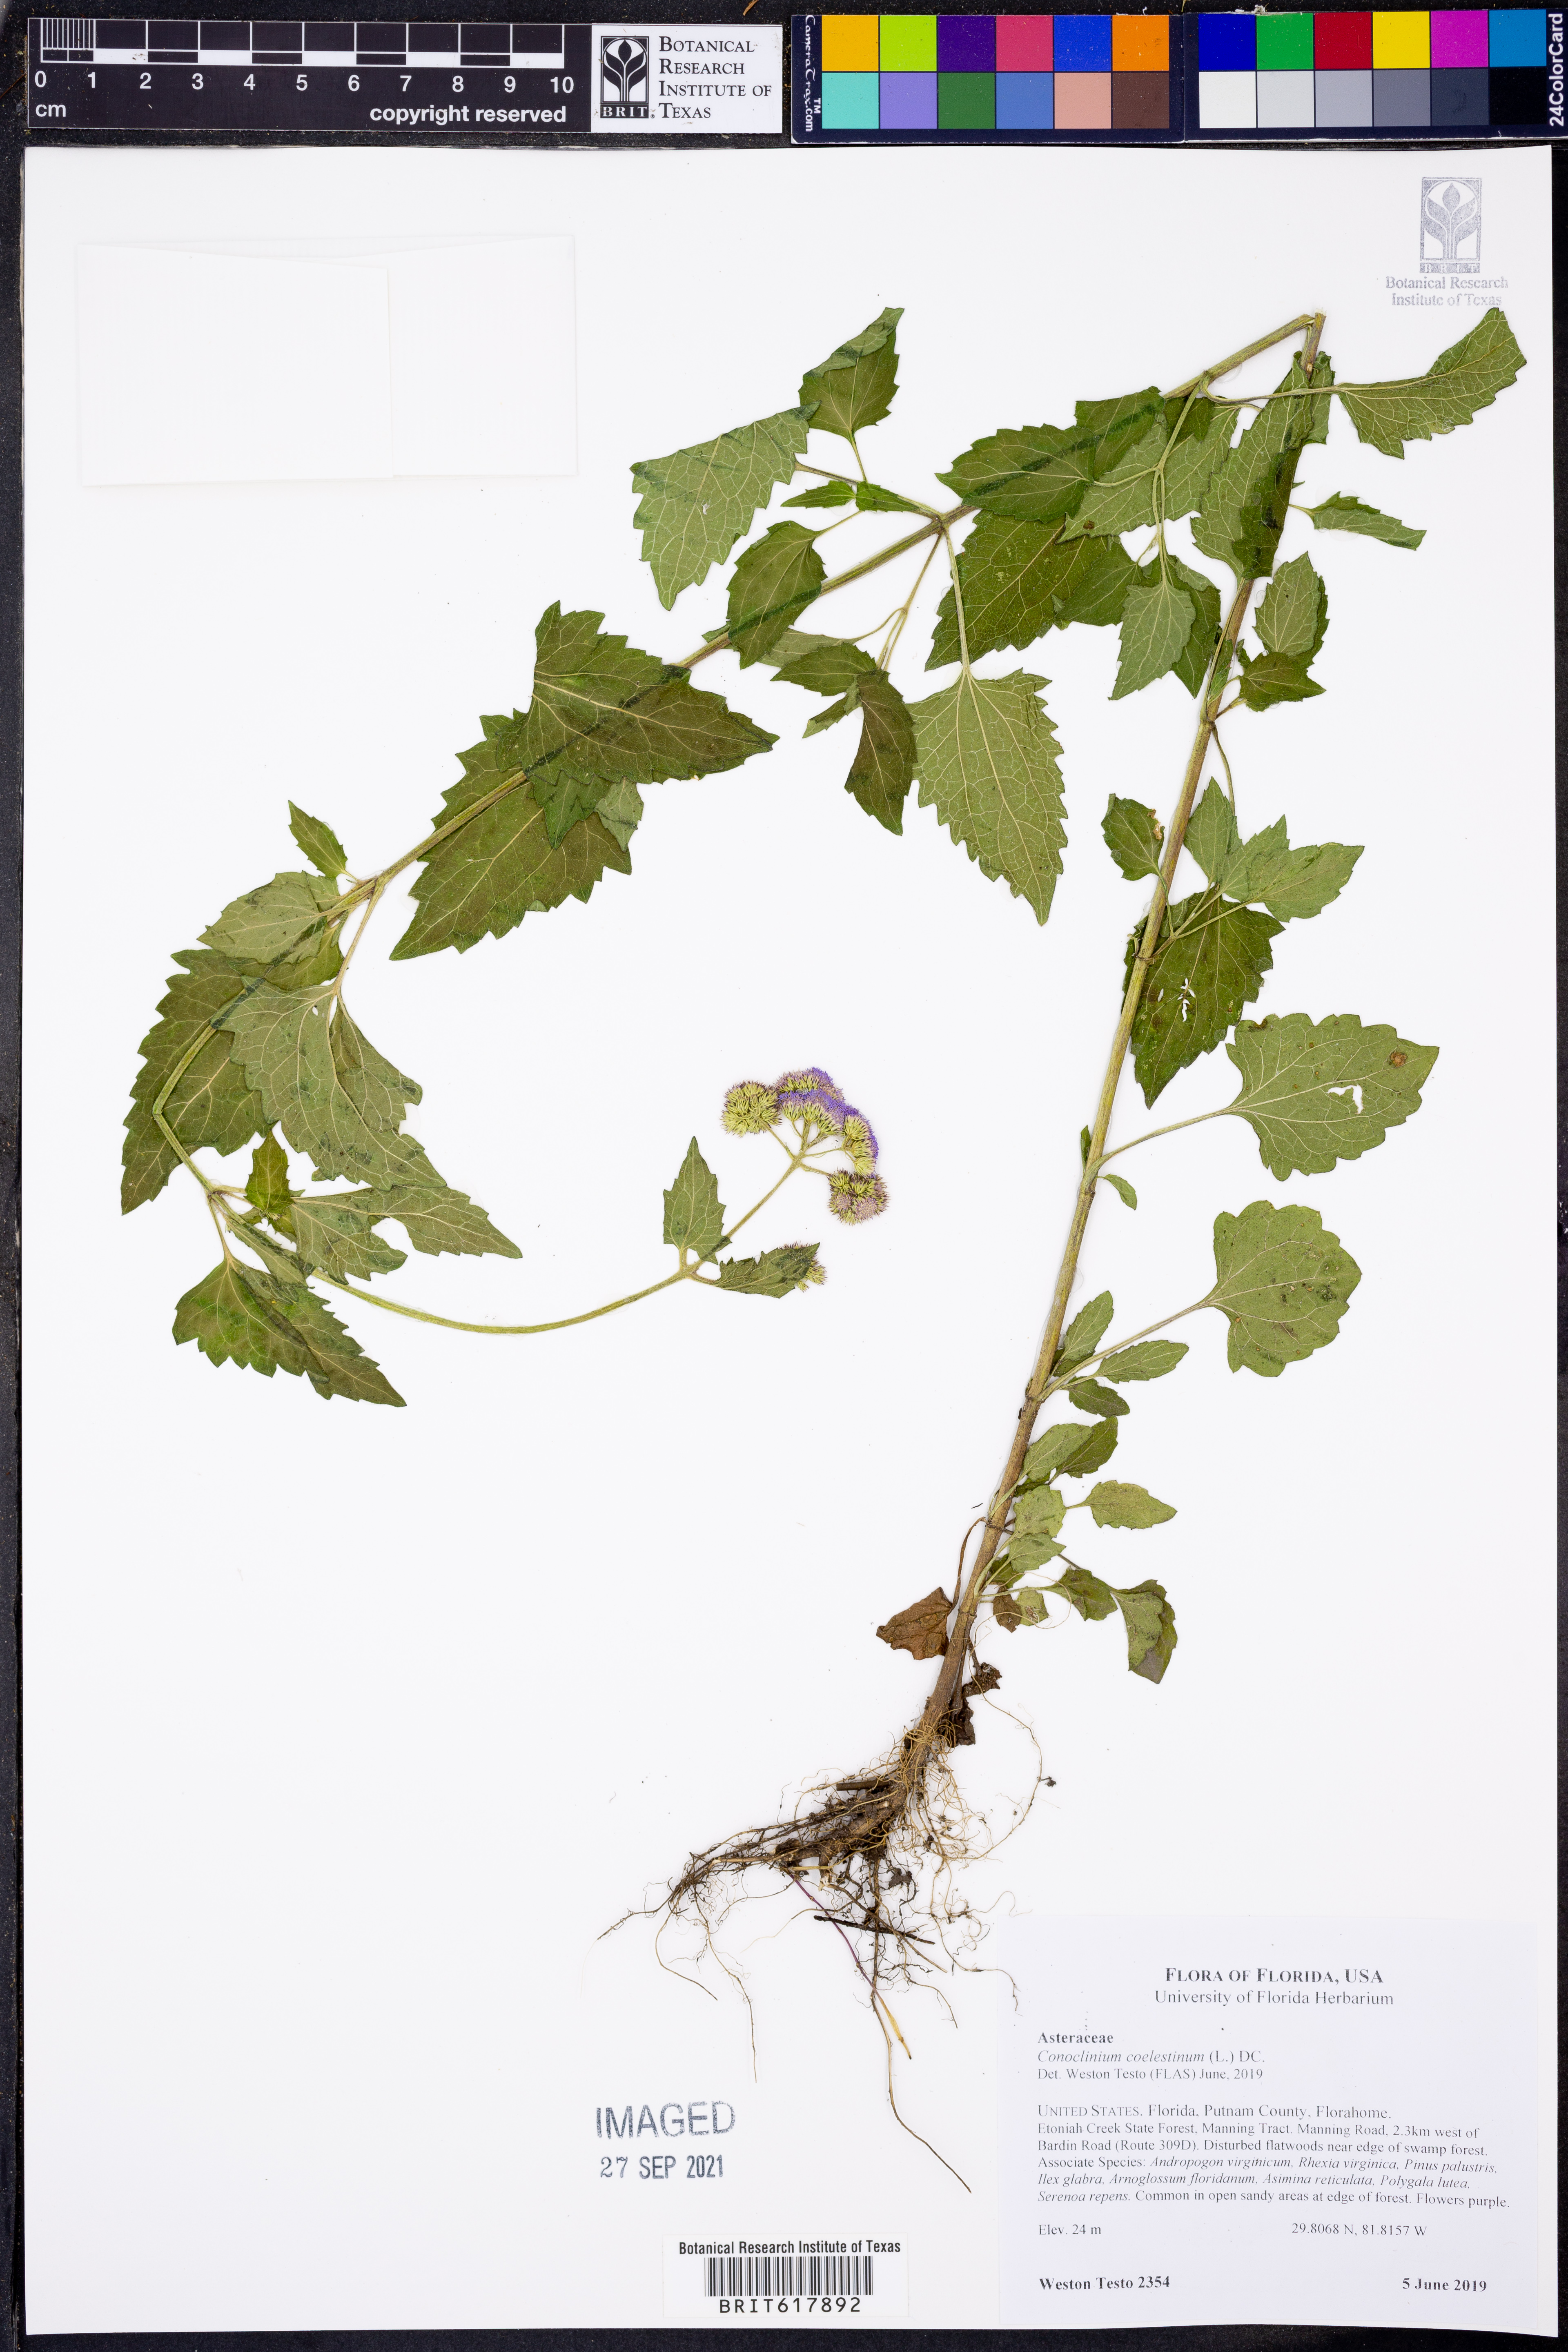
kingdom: Plantae
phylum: Tracheophyta
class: Magnoliopsida
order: Asterales
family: Asteraceae
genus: Conoclinium
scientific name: Conoclinium coelestinum
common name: Blue mistflower
